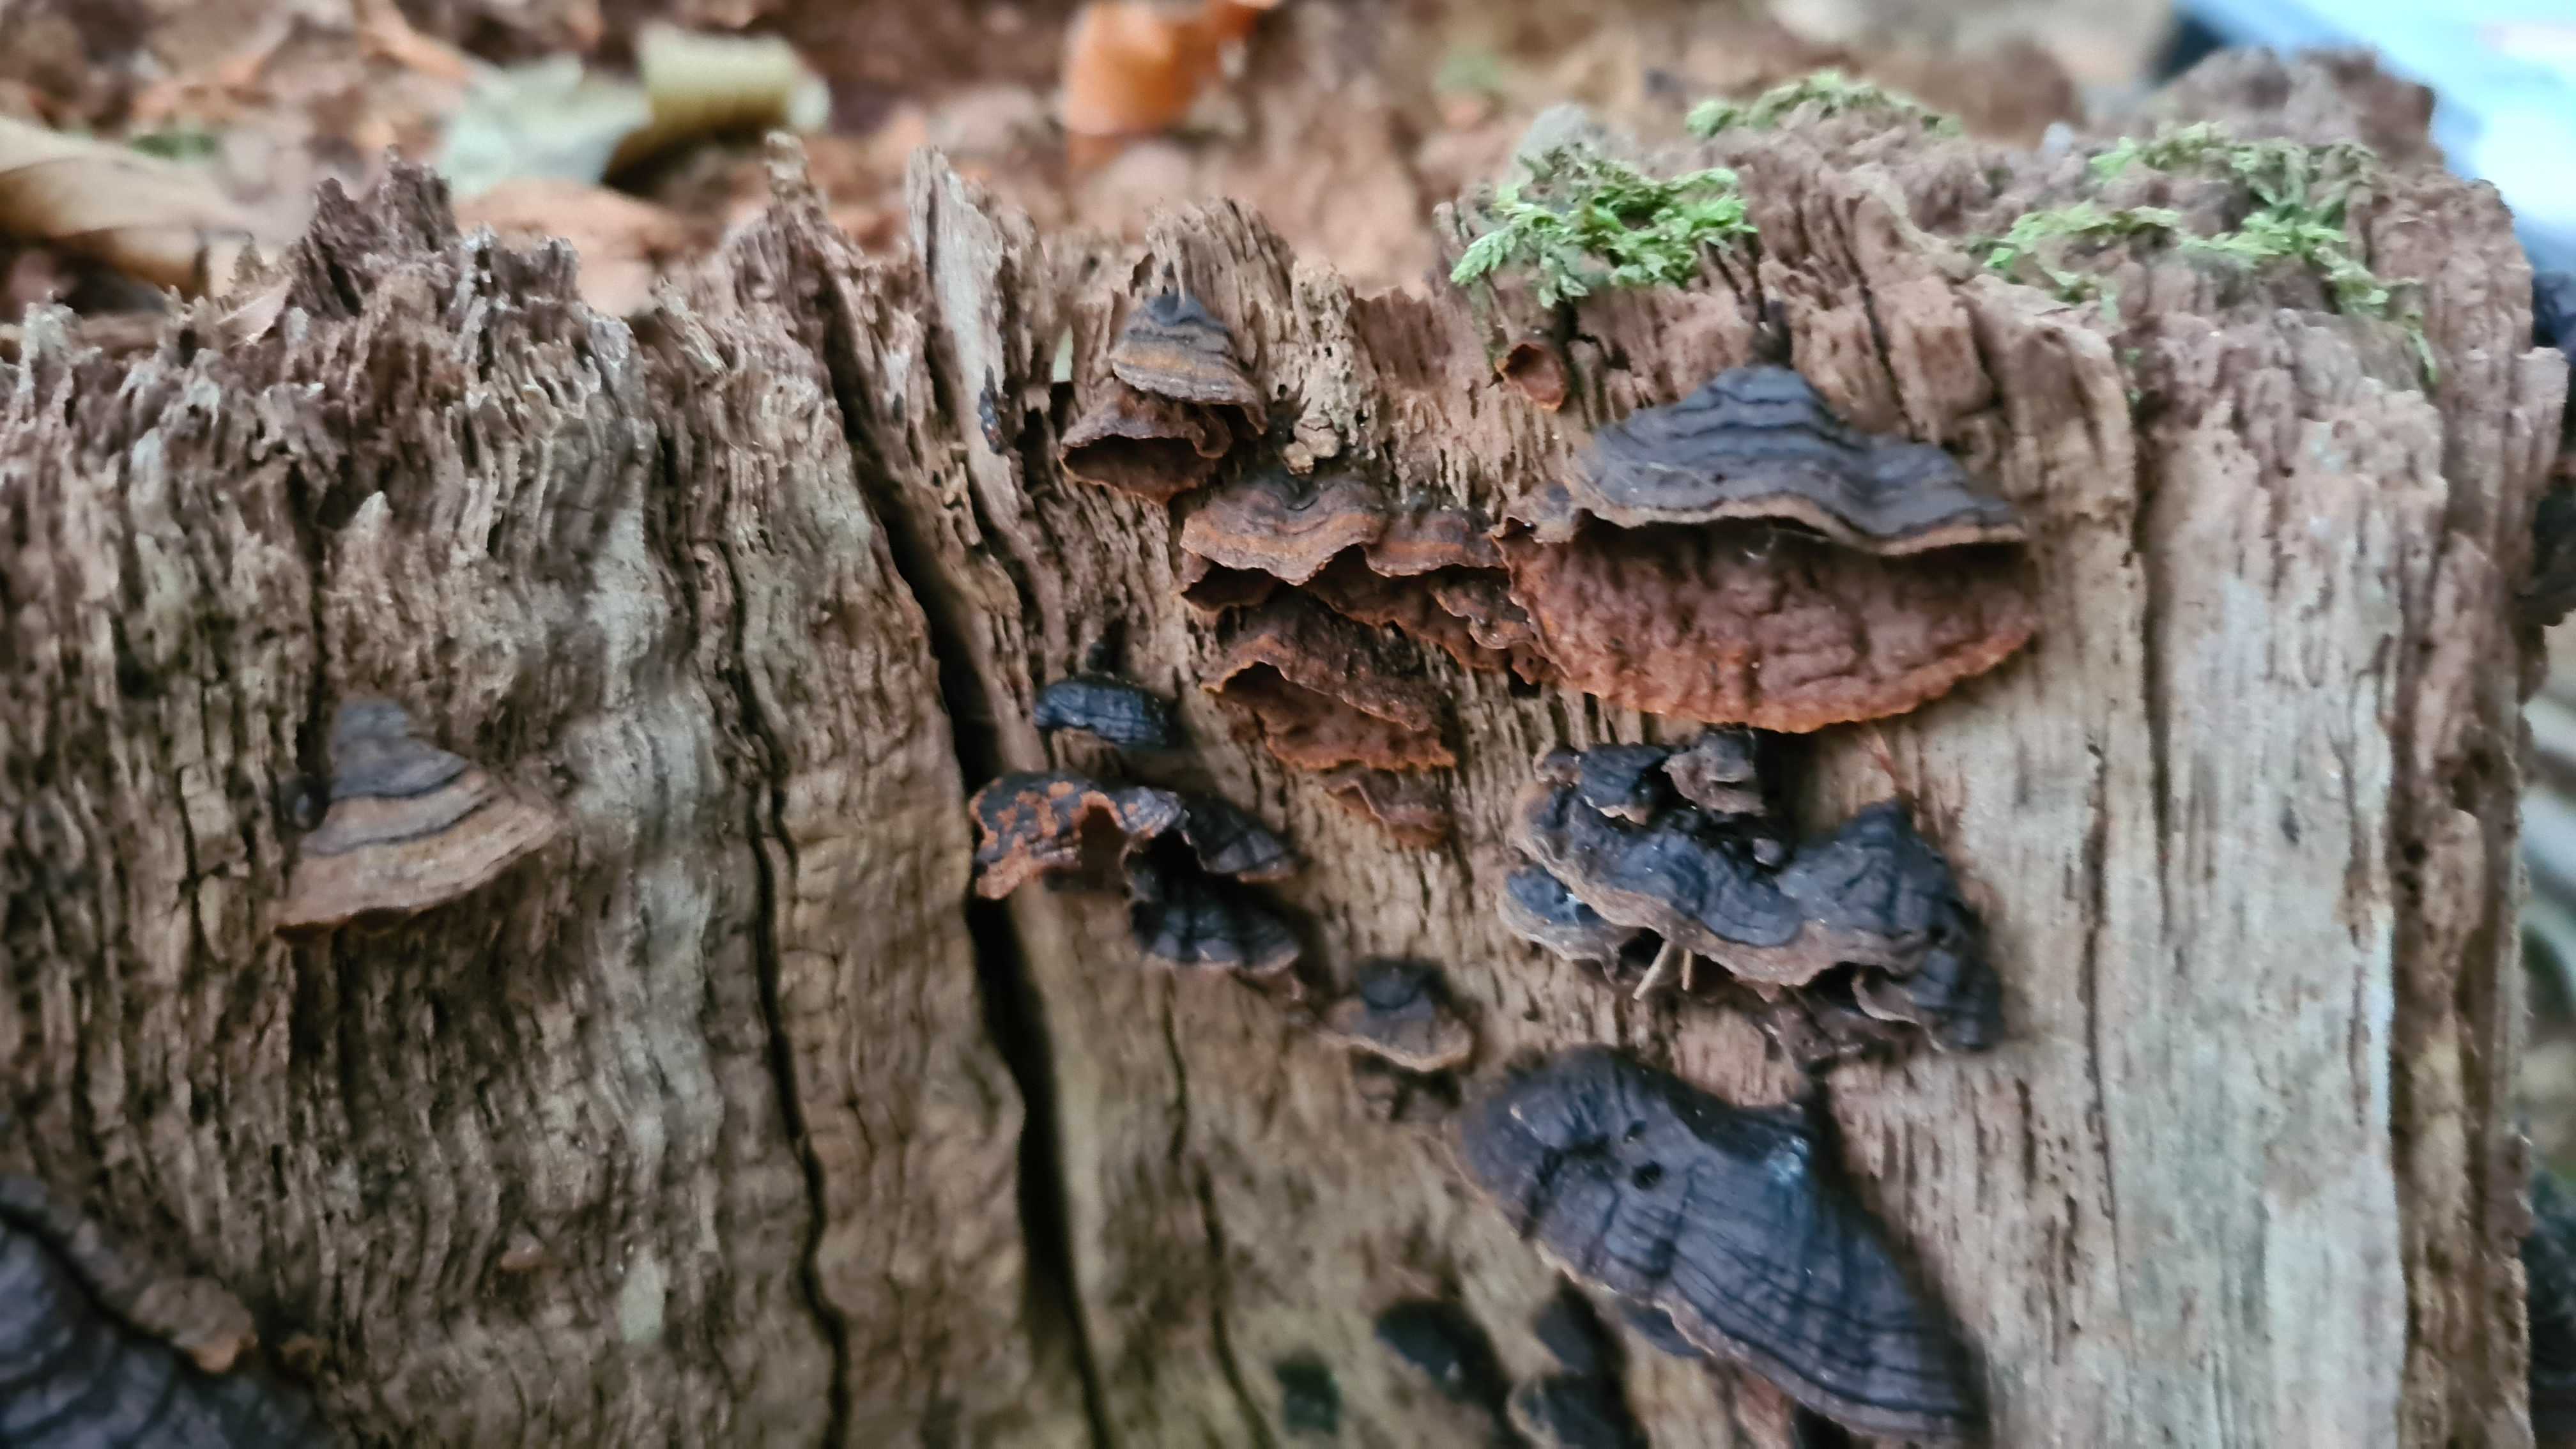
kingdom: Fungi
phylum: Basidiomycota
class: Agaricomycetes
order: Hymenochaetales
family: Hymenochaetaceae
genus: Hymenochaete
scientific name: Hymenochaete rubiginosa
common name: stiv ruslædersvamp
